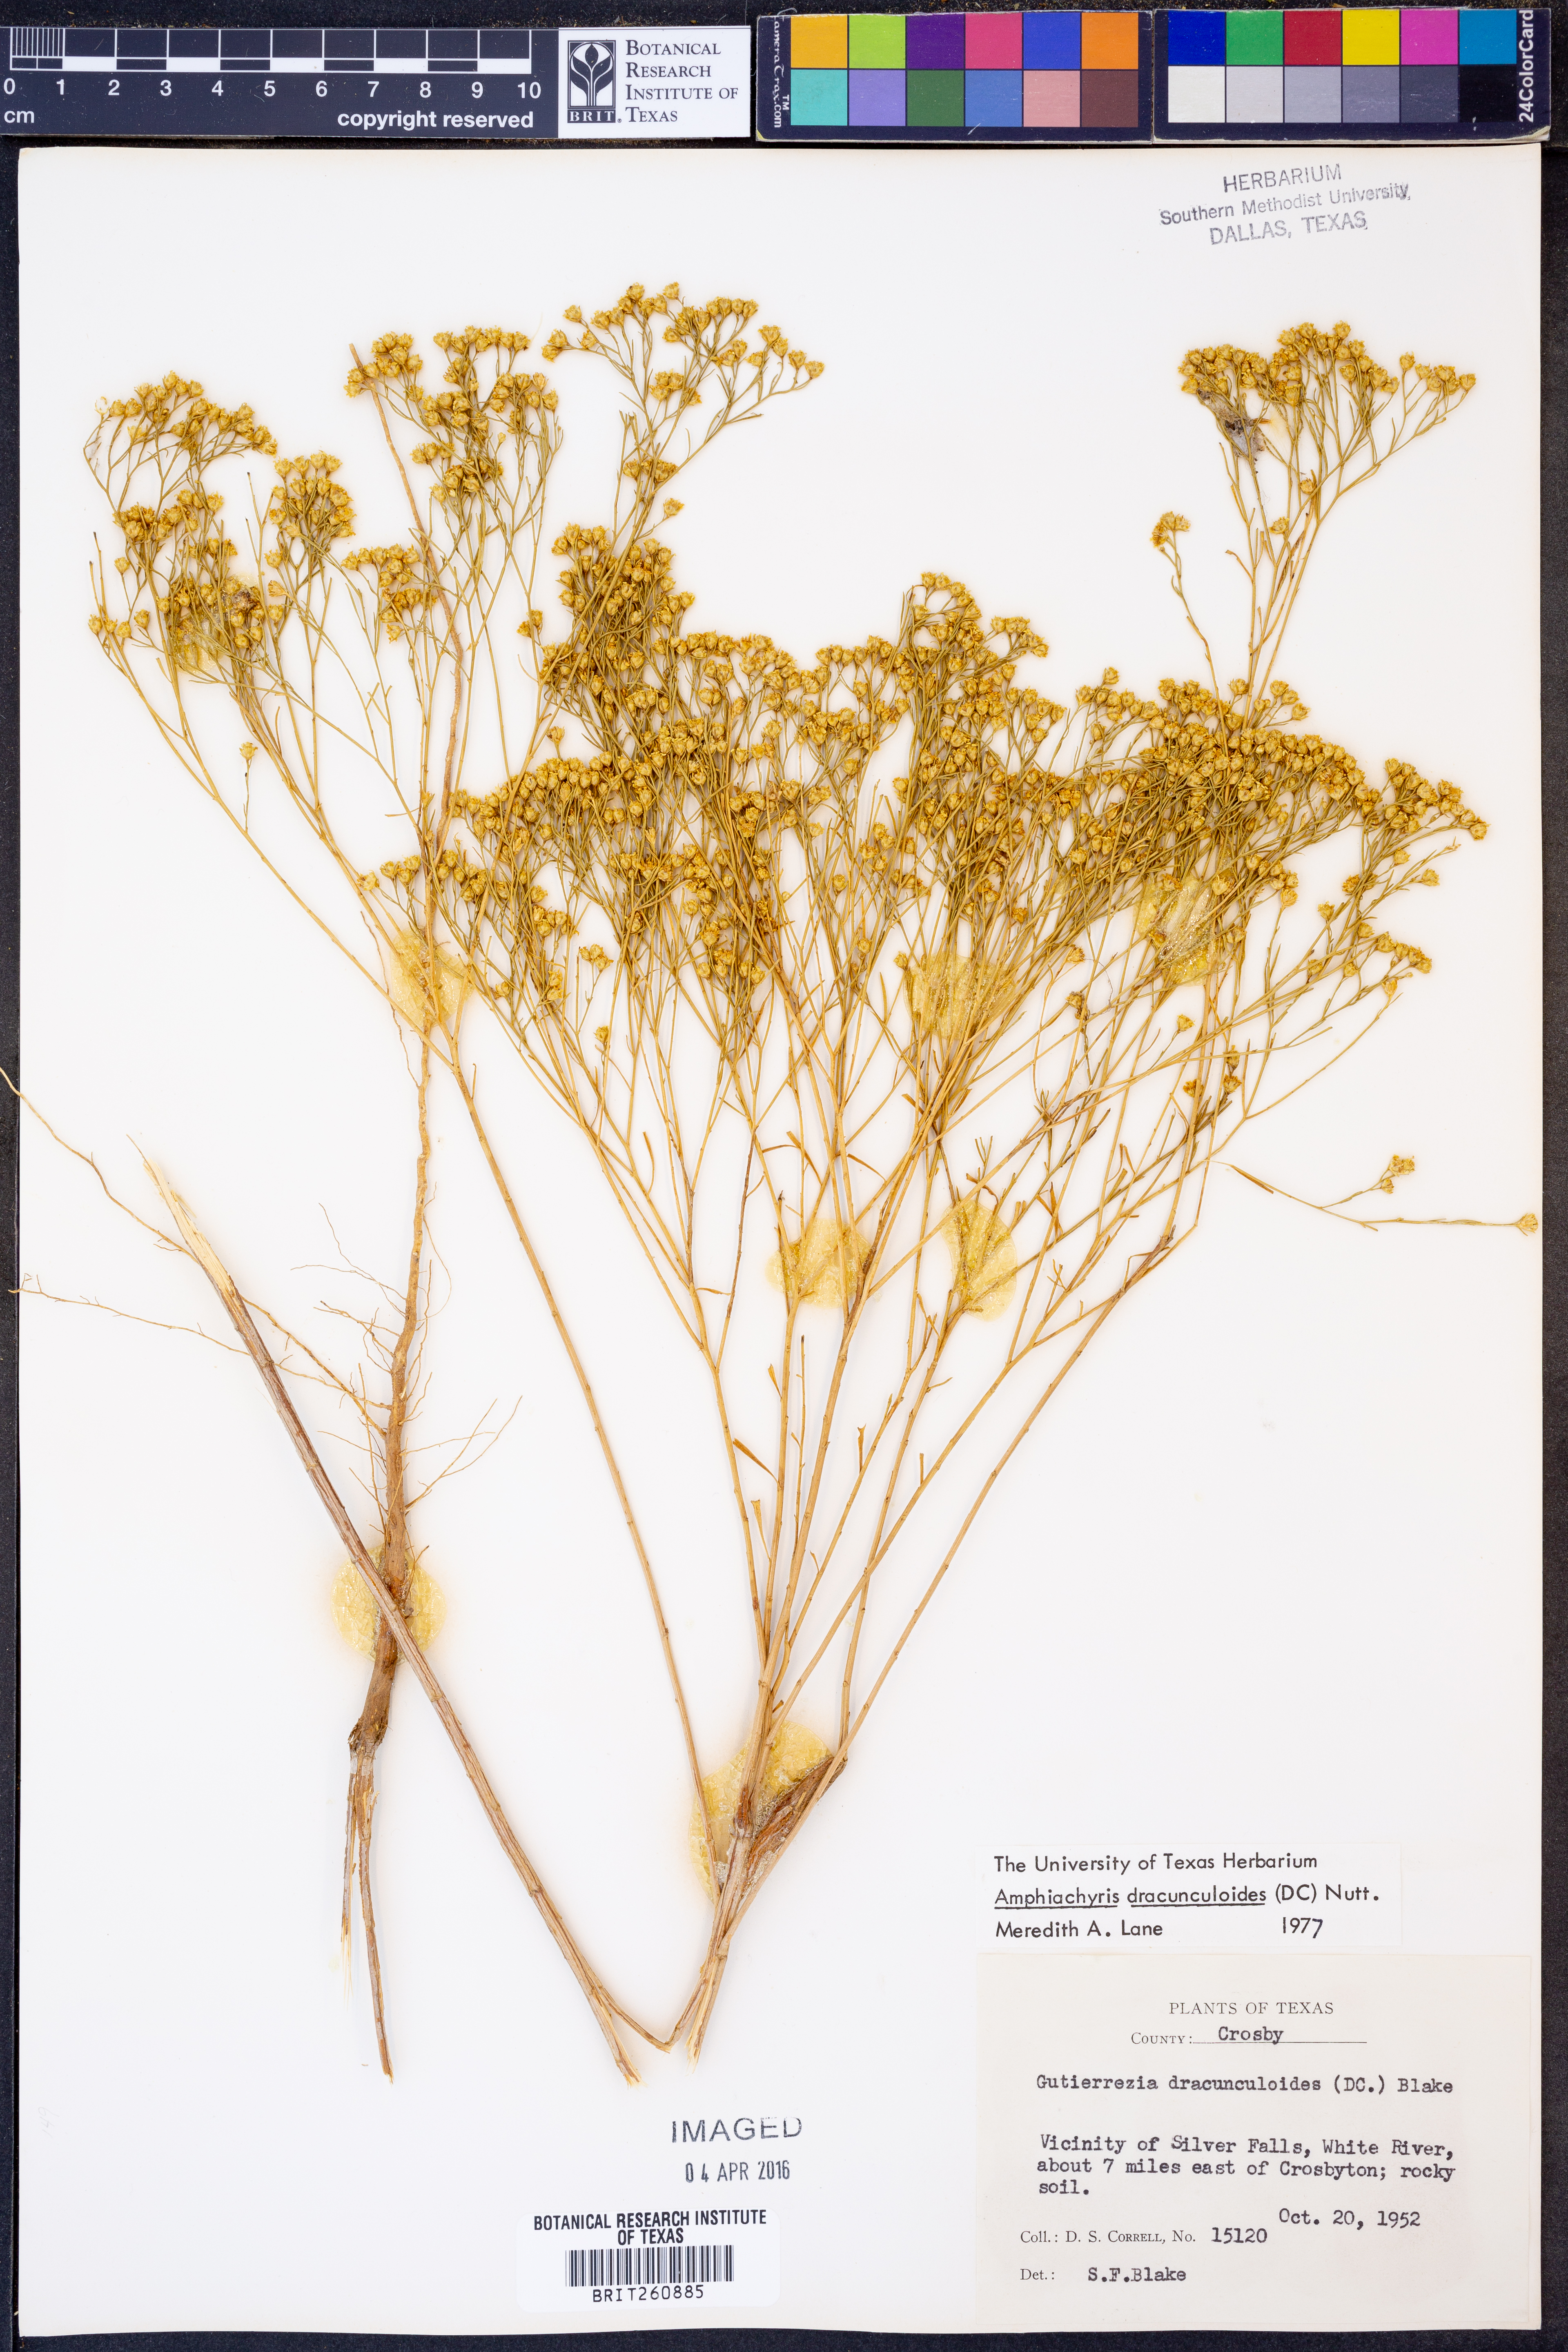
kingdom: Plantae
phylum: Tracheophyta
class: Magnoliopsida
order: Asterales
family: Asteraceae
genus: Amphiachyris
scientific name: Amphiachyris dracunculoides
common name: Broomweed
